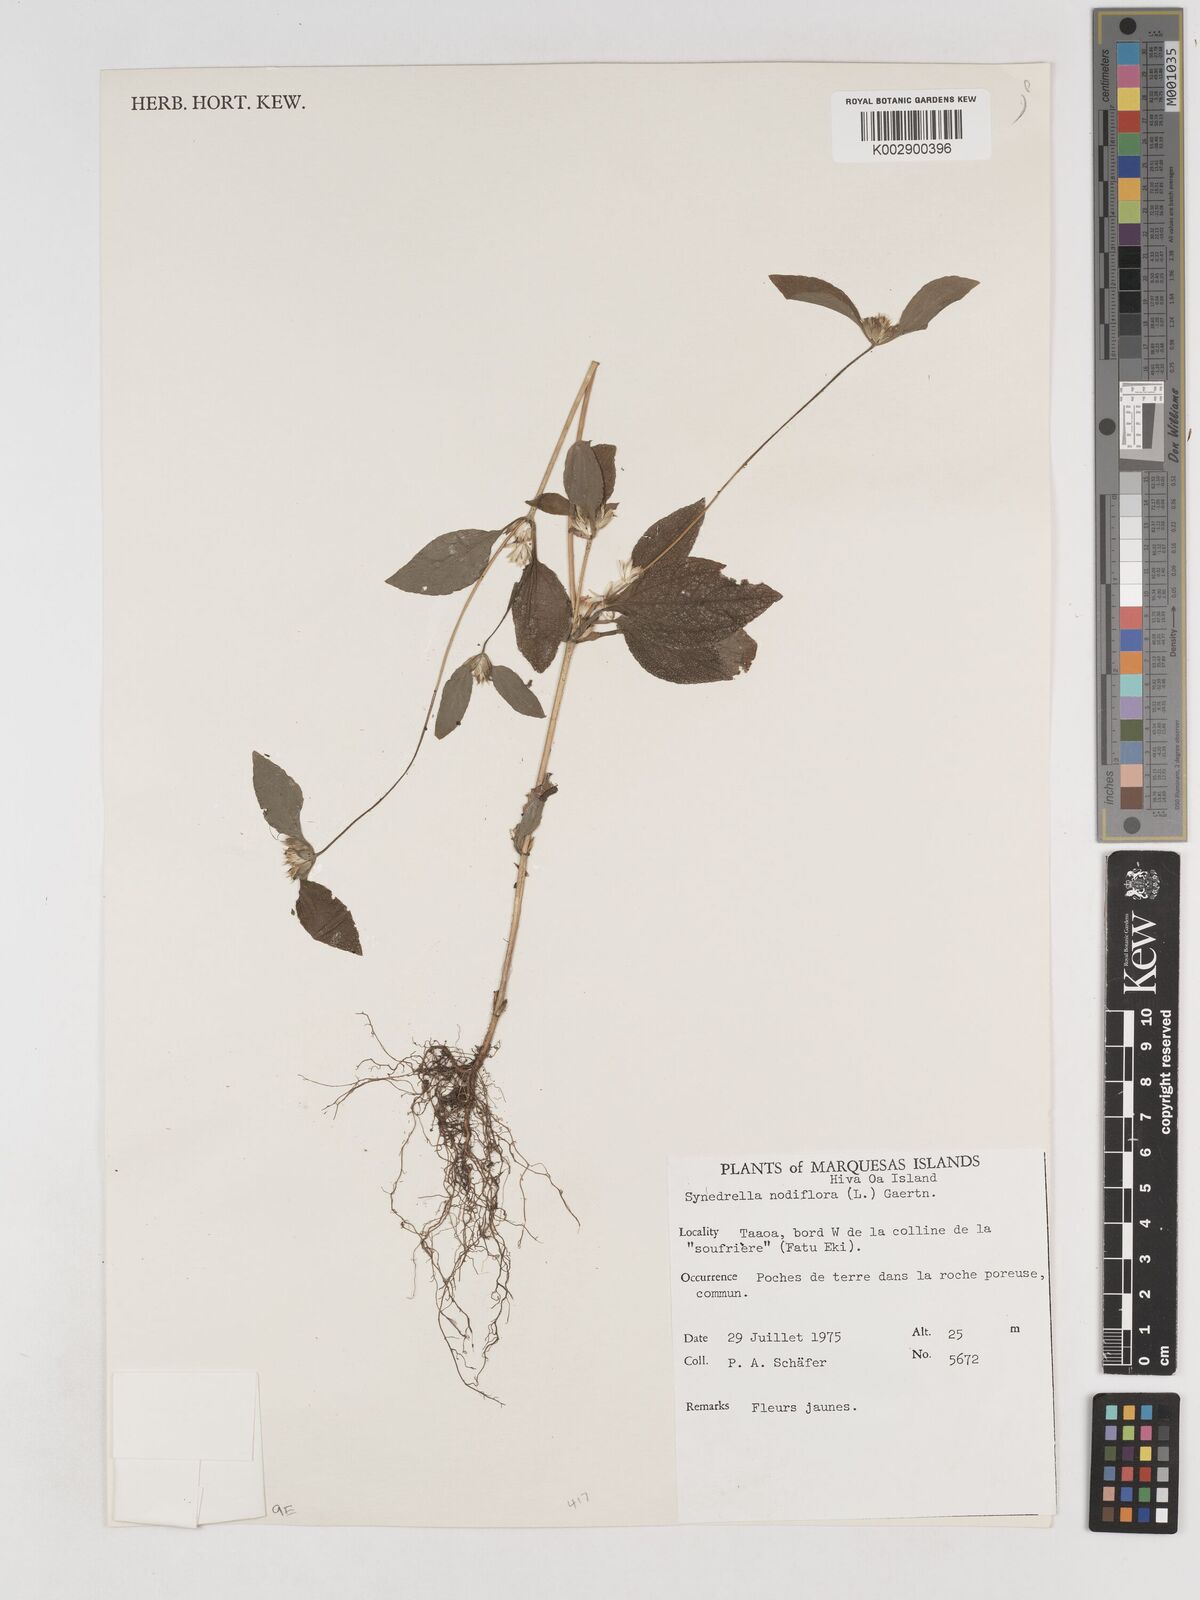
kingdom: Plantae
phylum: Tracheophyta
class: Magnoliopsida
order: Asterales
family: Asteraceae
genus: Synedrella
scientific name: Synedrella nodiflora
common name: Nodeweed
